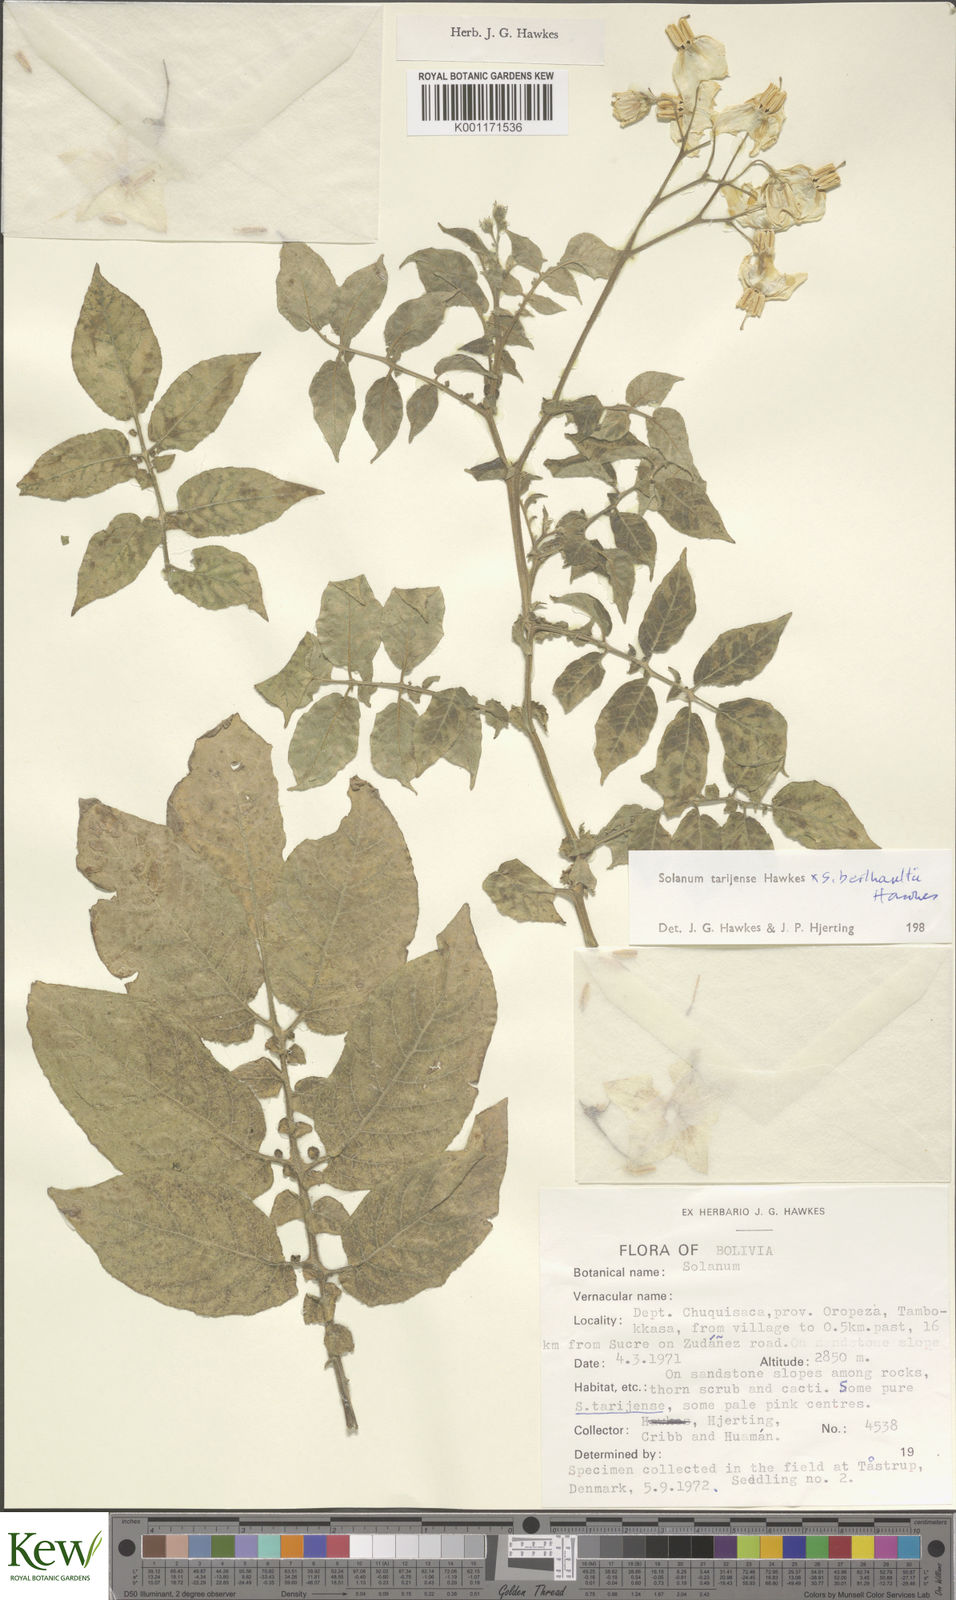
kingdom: Plantae
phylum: Tracheophyta
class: Magnoliopsida
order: Solanales
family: Solanaceae
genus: Solanum
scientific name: Solanum tarijense
